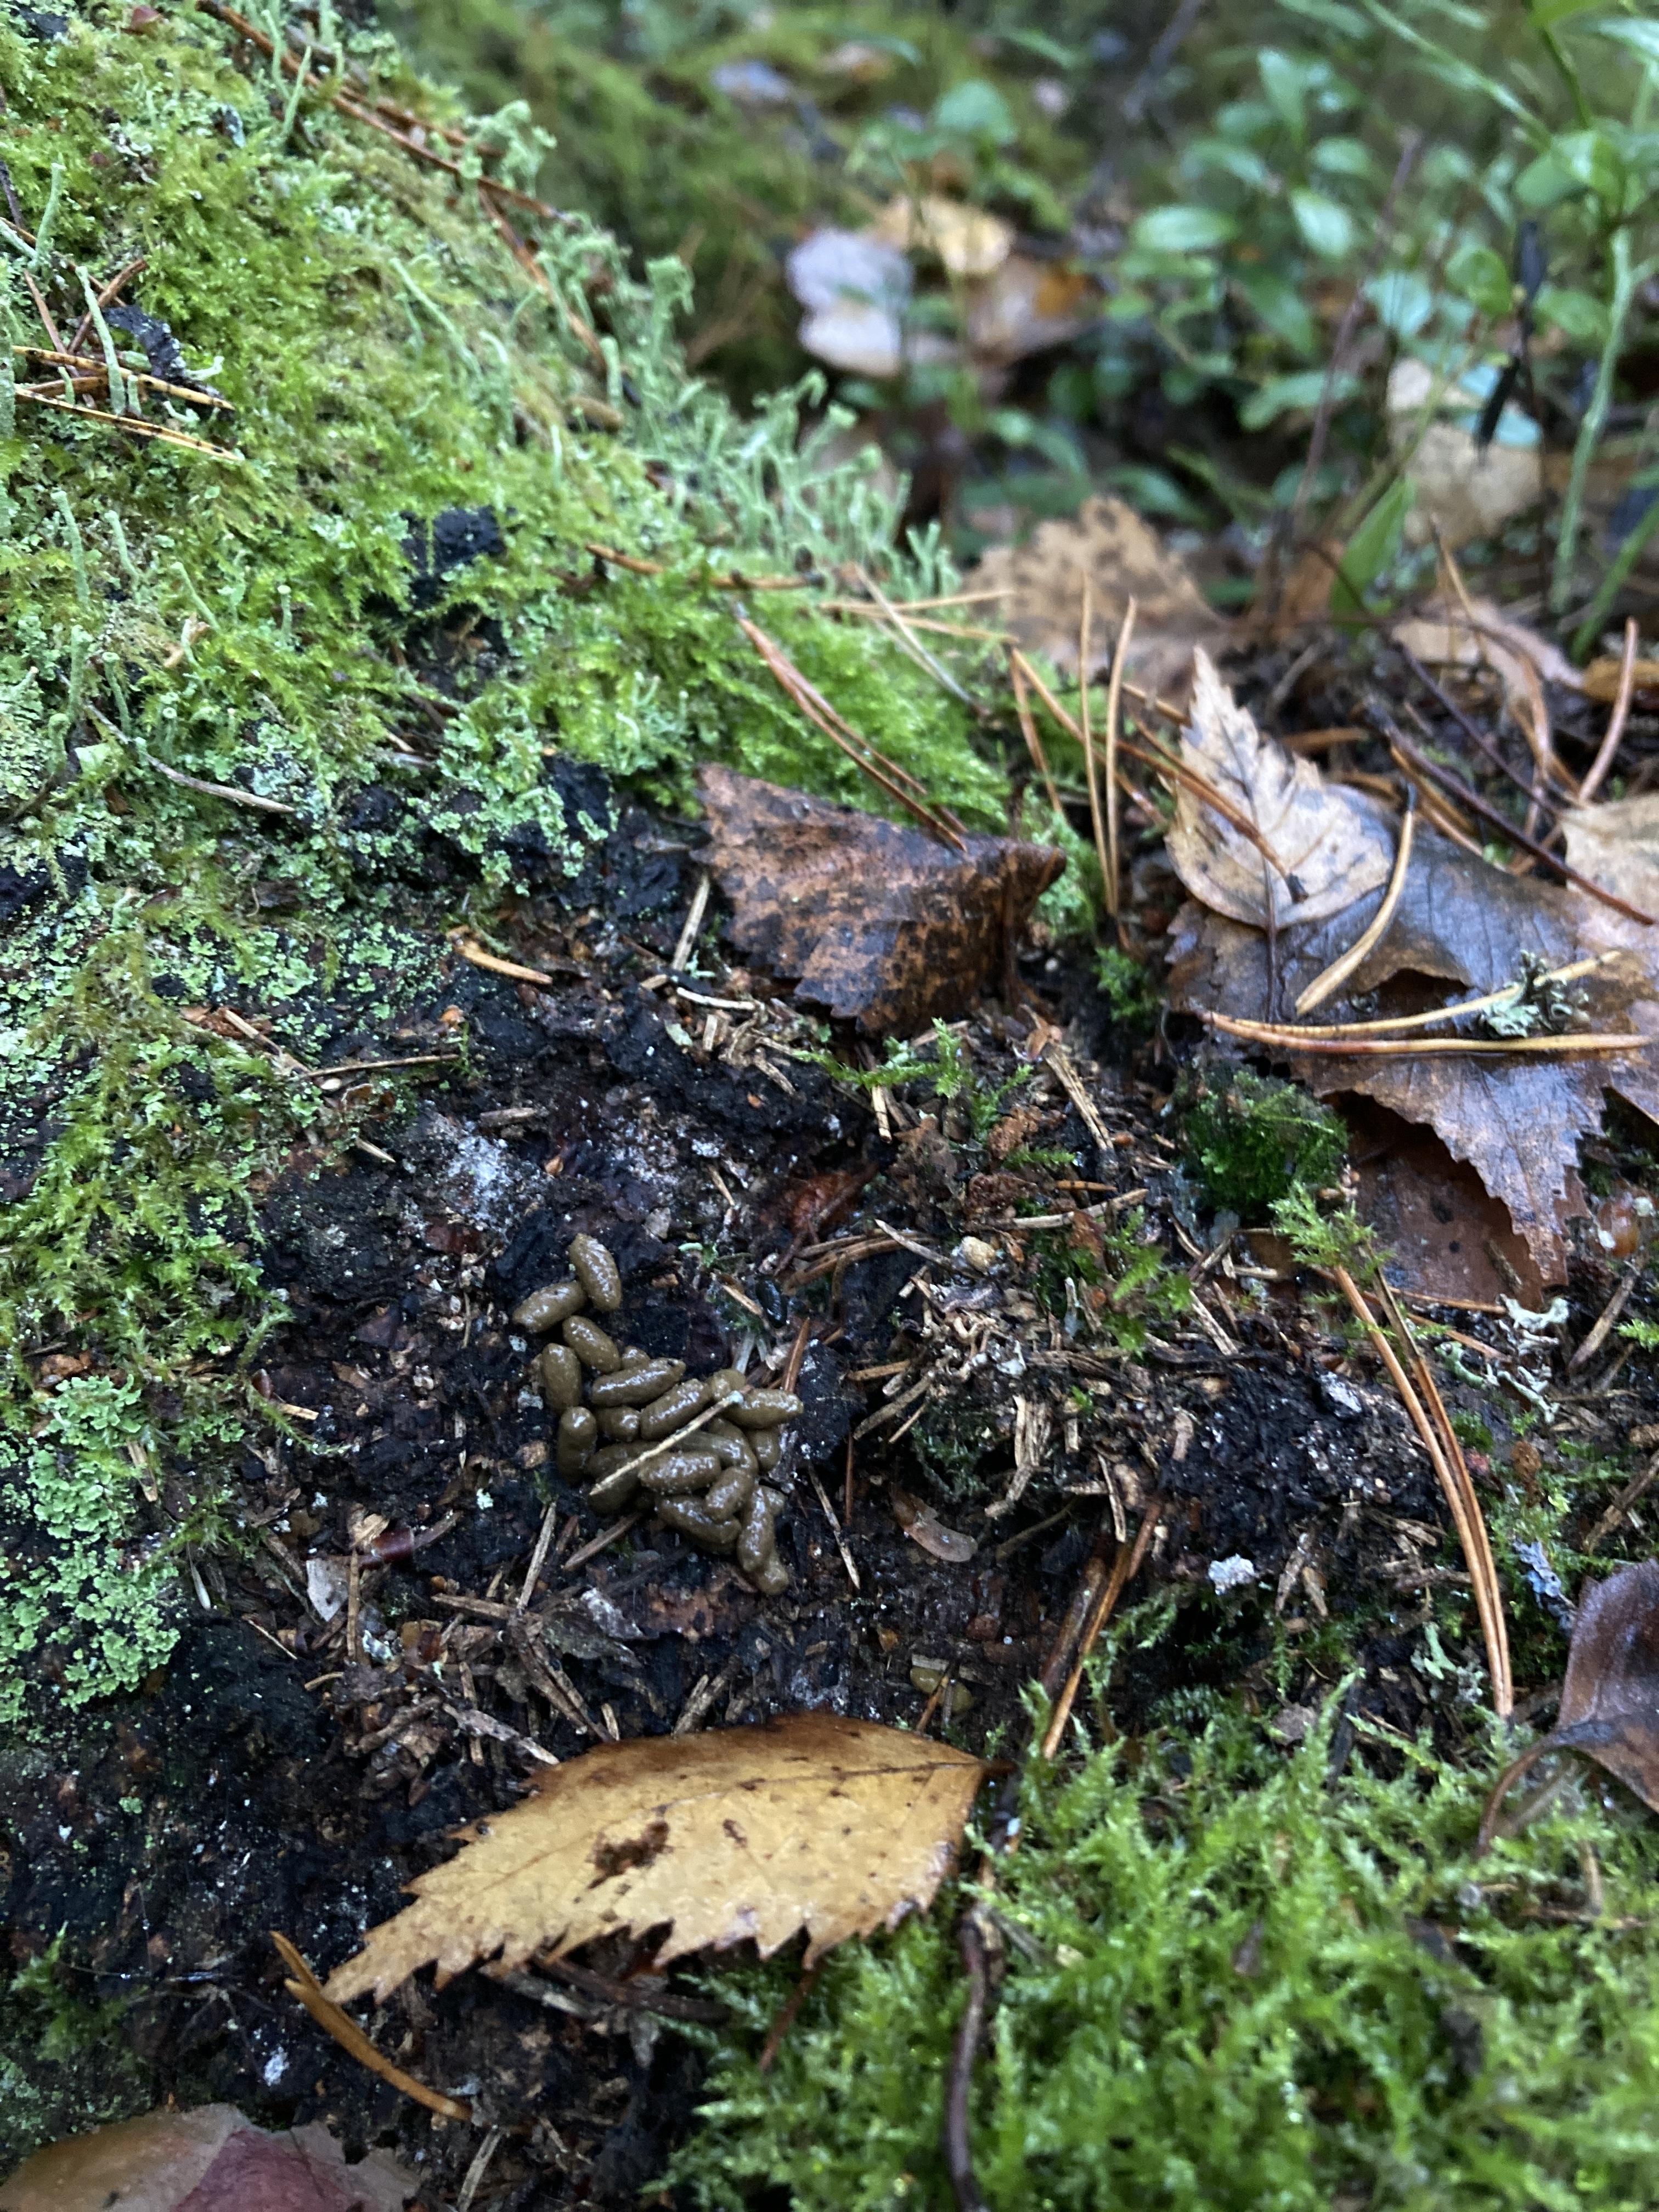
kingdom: Animalia
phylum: Chordata
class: Mammalia
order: Rodentia
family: Sciuridae
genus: Pteromys
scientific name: Pteromys volans
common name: Siberian flying squirrel
